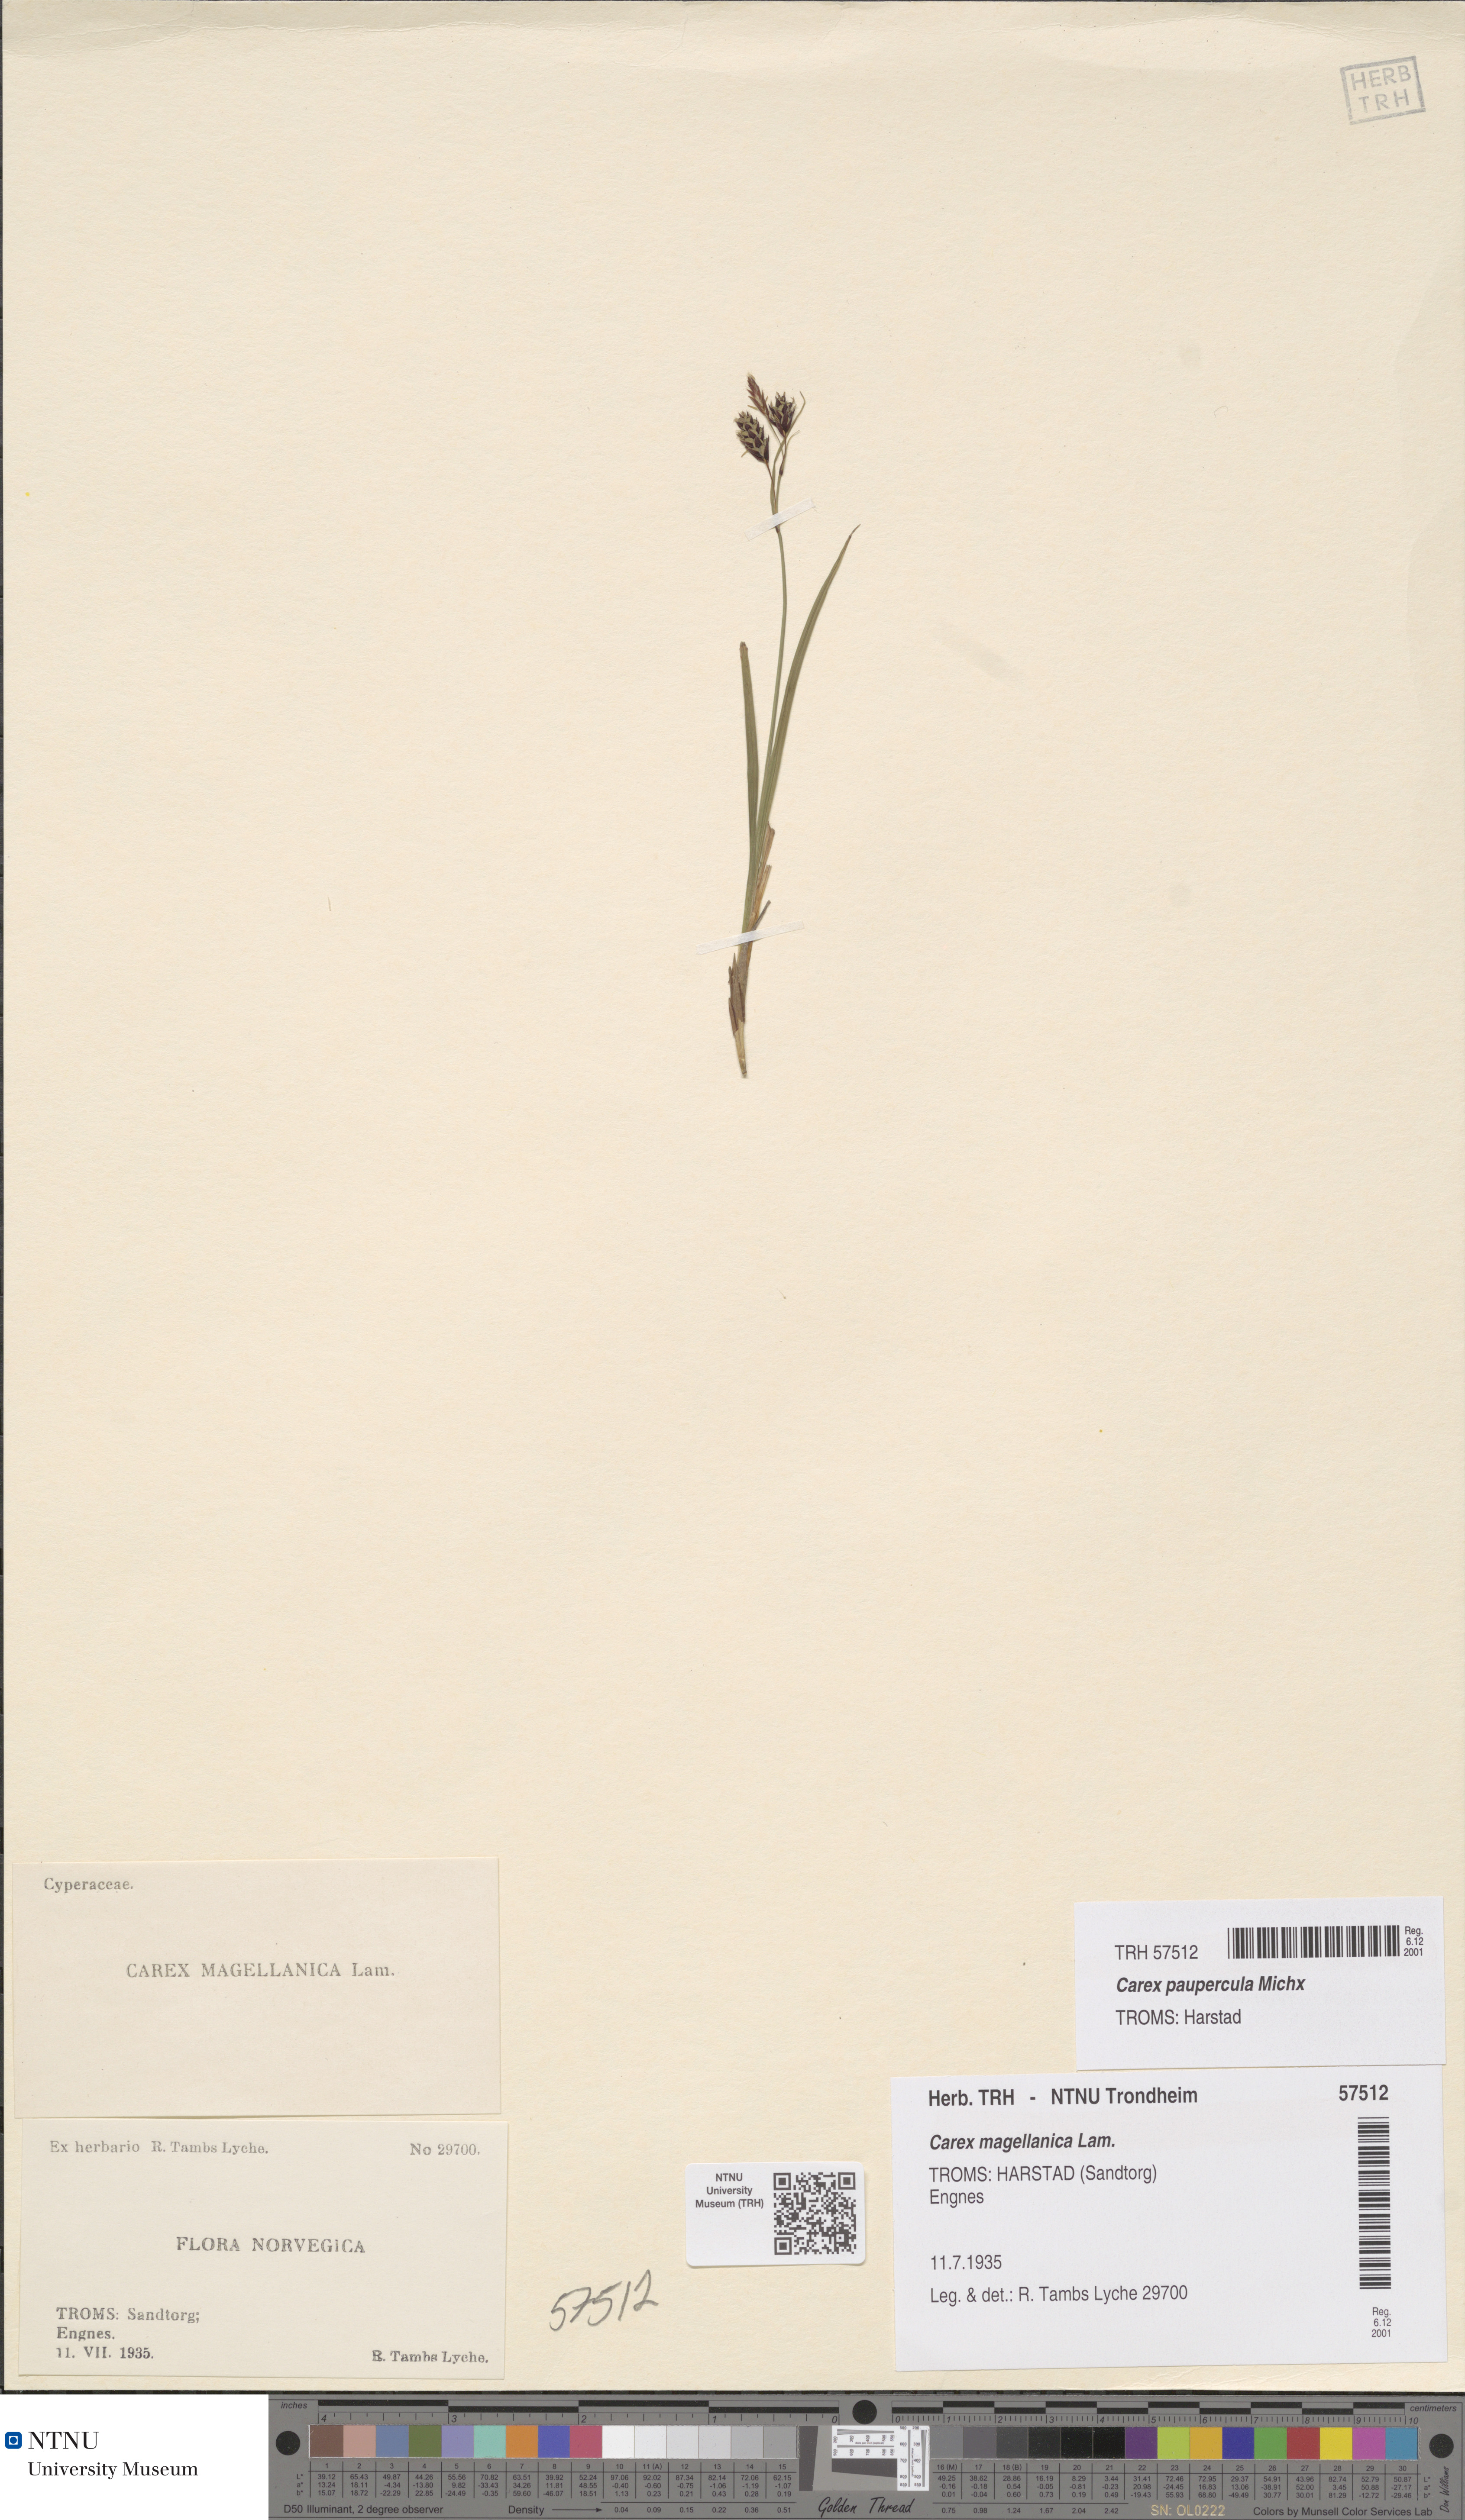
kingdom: Plantae
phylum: Tracheophyta
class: Liliopsida
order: Poales
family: Cyperaceae
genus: Carex
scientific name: Carex magellanica
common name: Bog sedge
